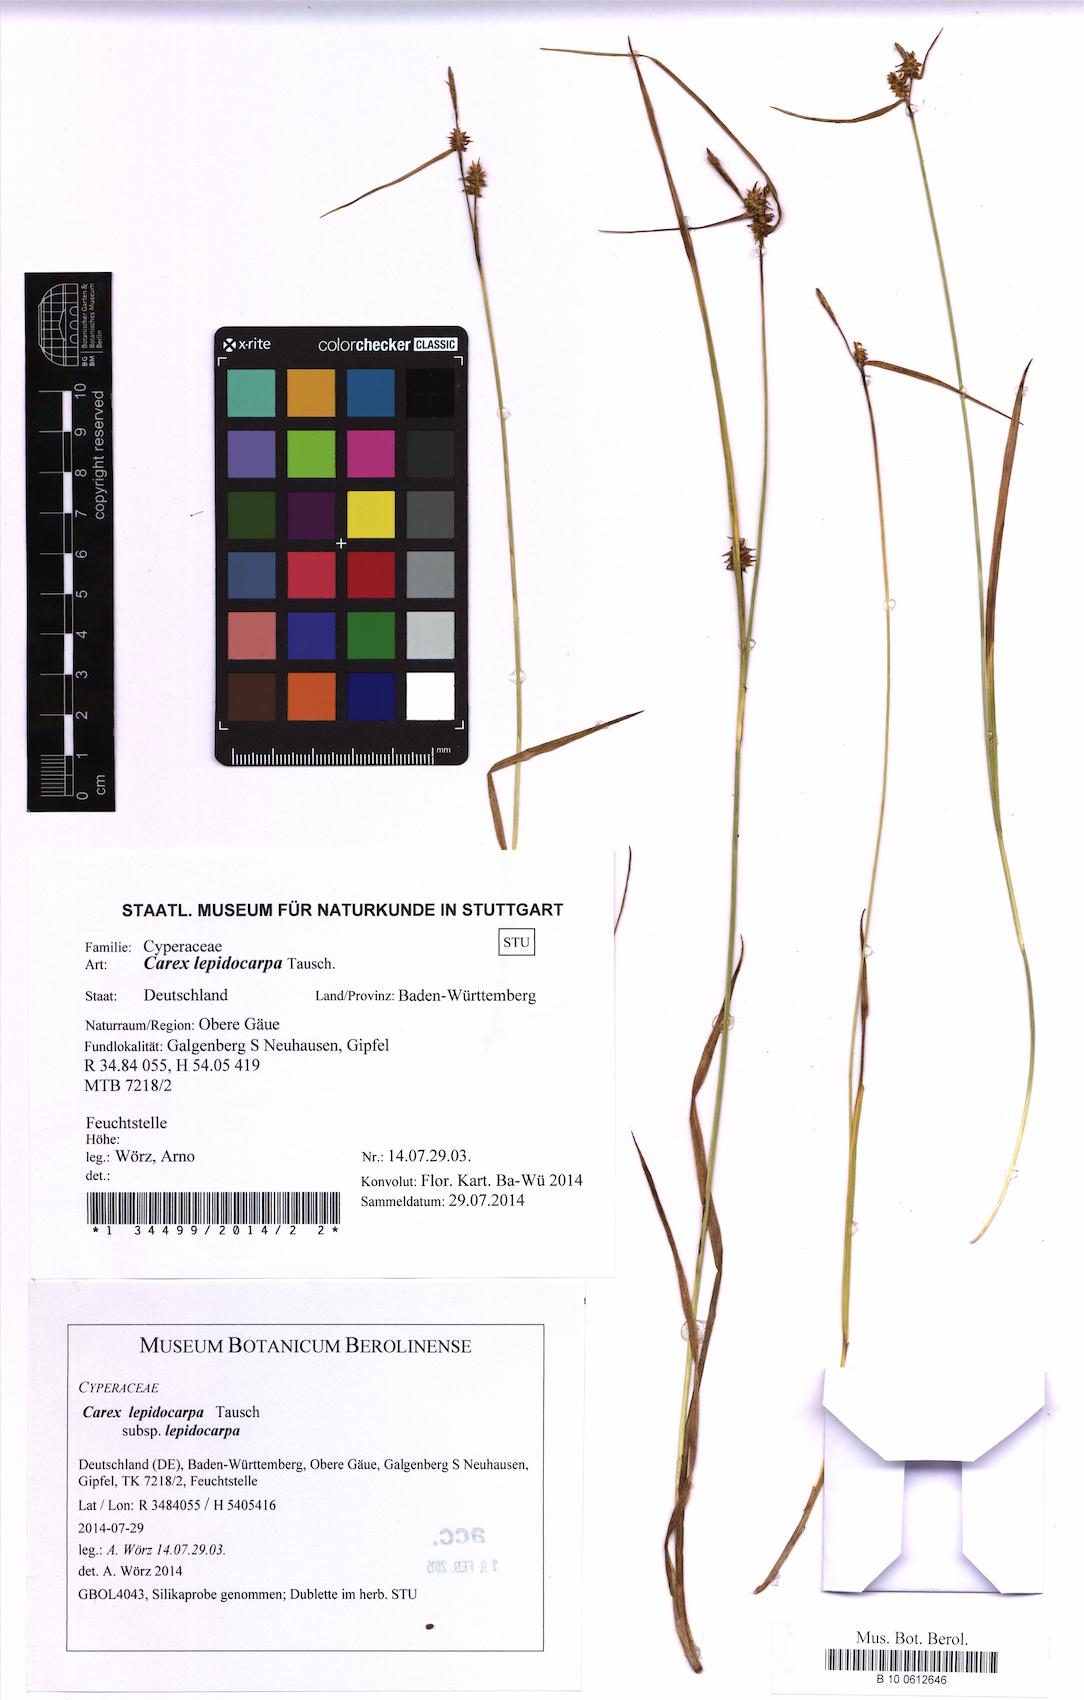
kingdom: Plantae
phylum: Tracheophyta
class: Liliopsida
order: Poales
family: Cyperaceae
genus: Carex
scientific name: Carex lepidocarpa
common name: Long-stalked yellow-sedge
